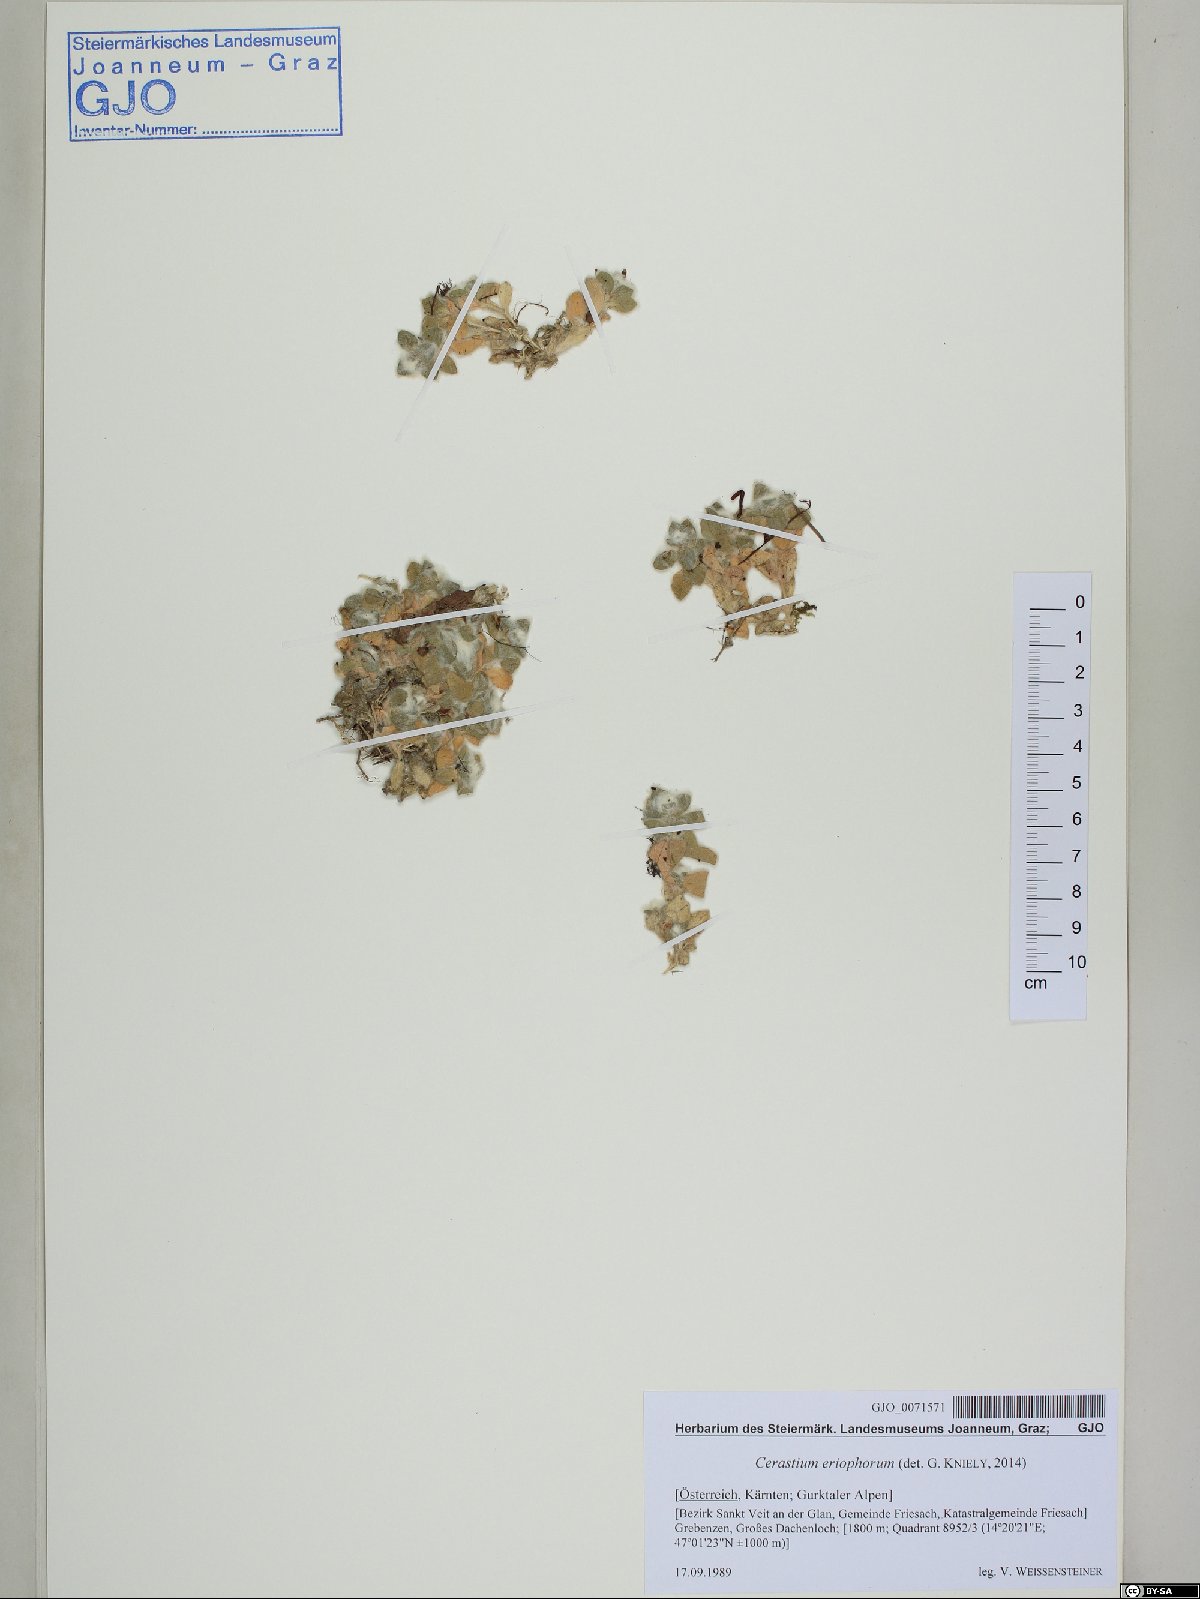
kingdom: Plantae
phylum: Tracheophyta
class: Magnoliopsida
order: Caryophyllales
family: Caryophyllaceae
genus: Cerastium
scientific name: Cerastium eriophorum
